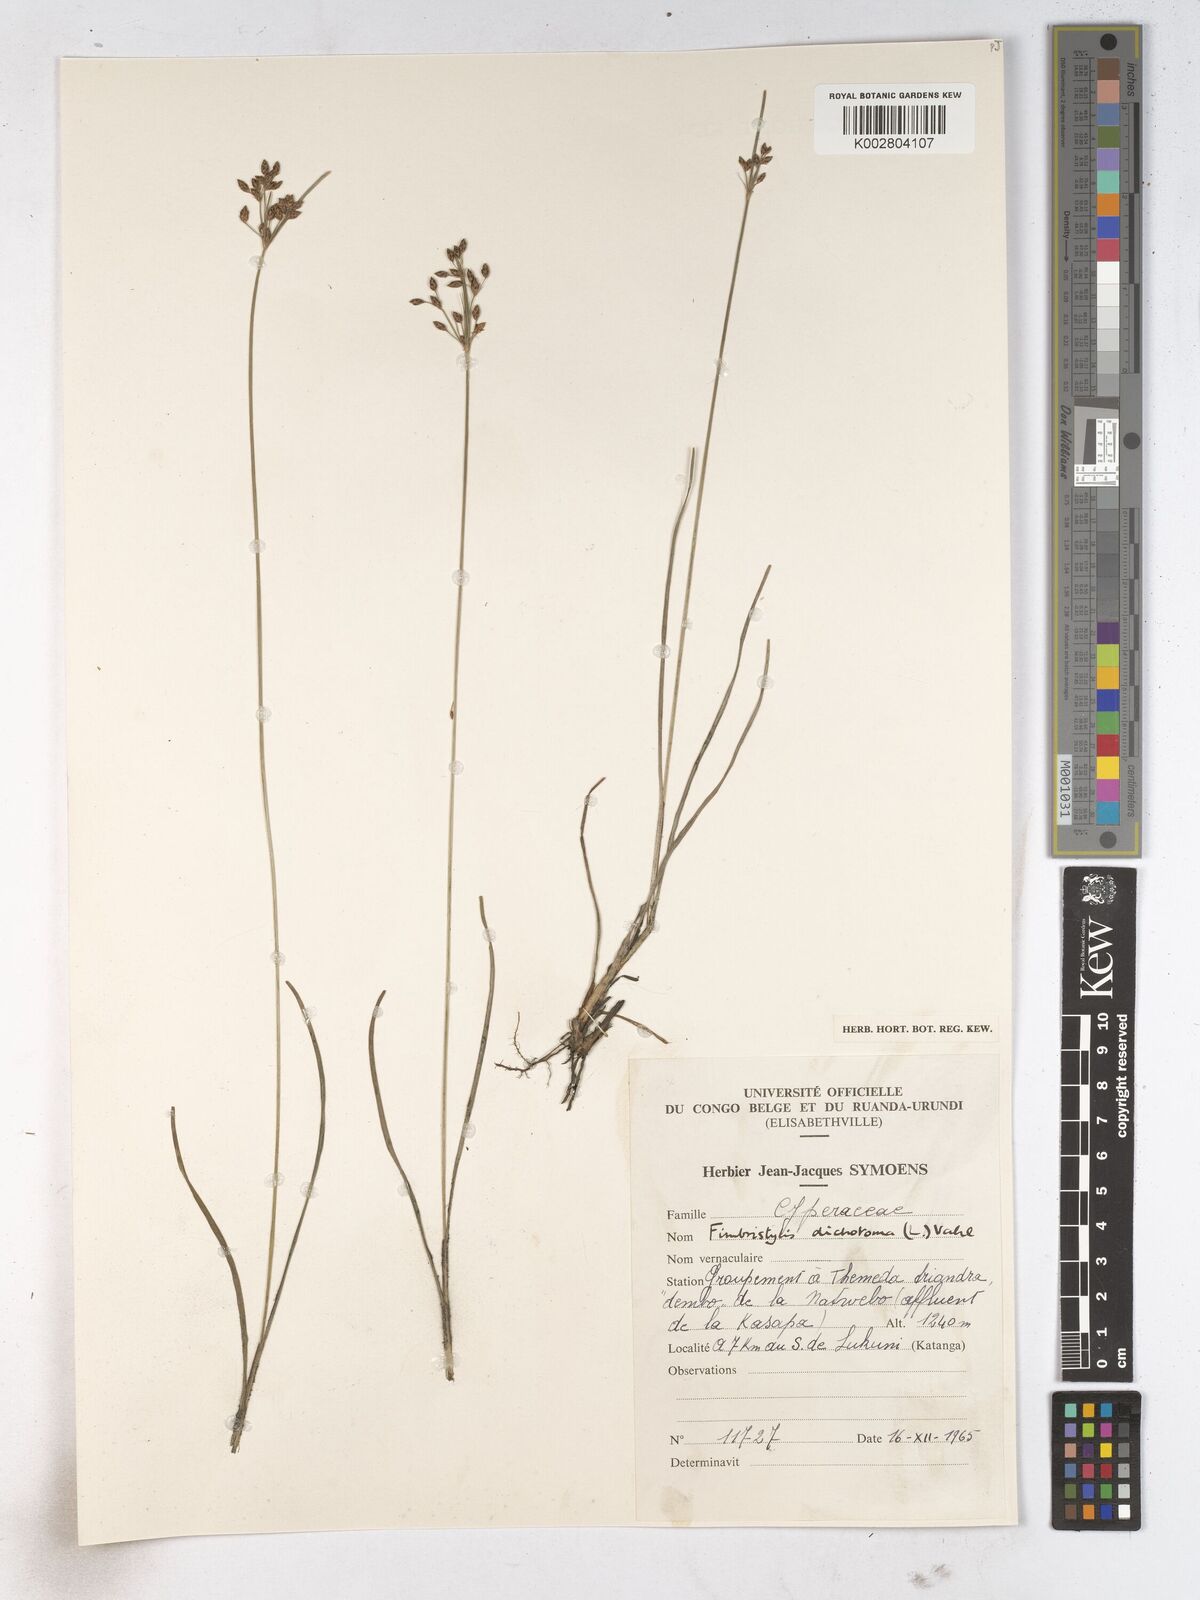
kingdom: Plantae
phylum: Tracheophyta
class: Liliopsida
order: Poales
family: Cyperaceae
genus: Fimbristylis
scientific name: Fimbristylis dichotoma
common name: Forked fimbry
